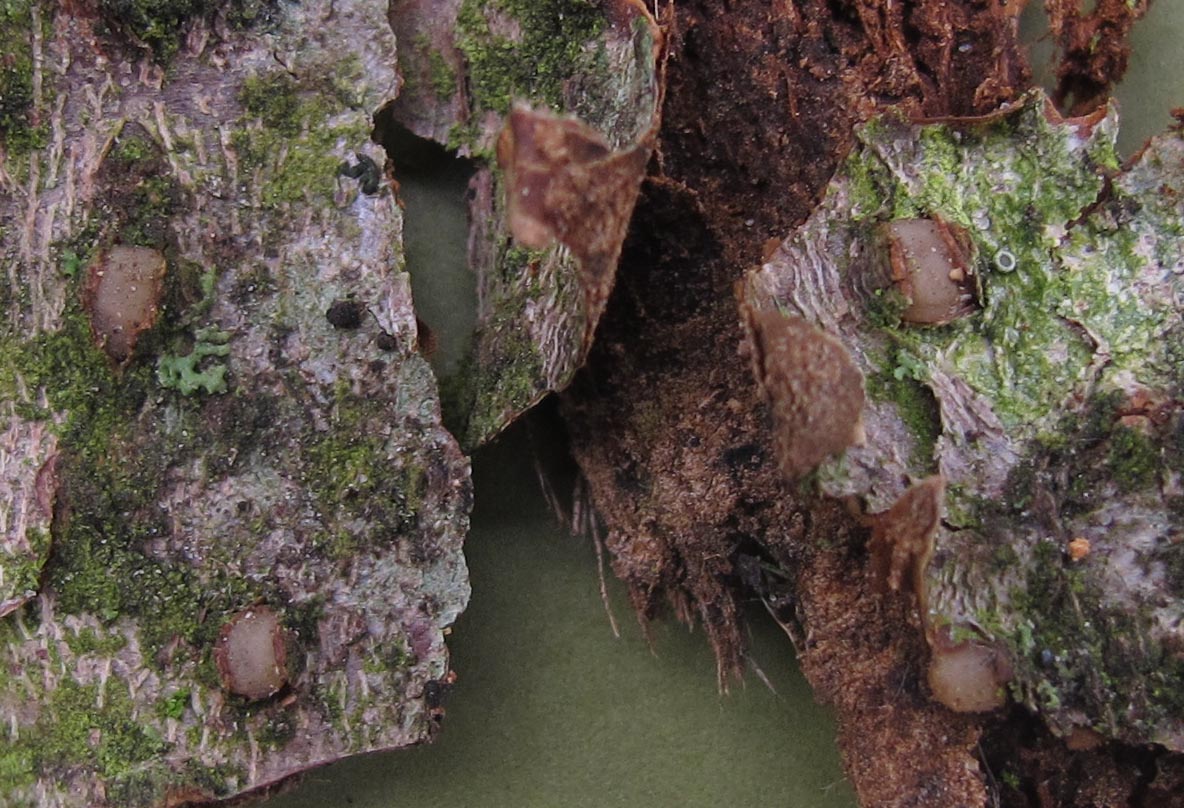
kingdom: Fungi
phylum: Basidiomycota
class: Pucciniomycetes
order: Platygloeales
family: Platygloeaceae
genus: Platygloea
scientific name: Platygloea disciformis
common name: linde-slimklat
